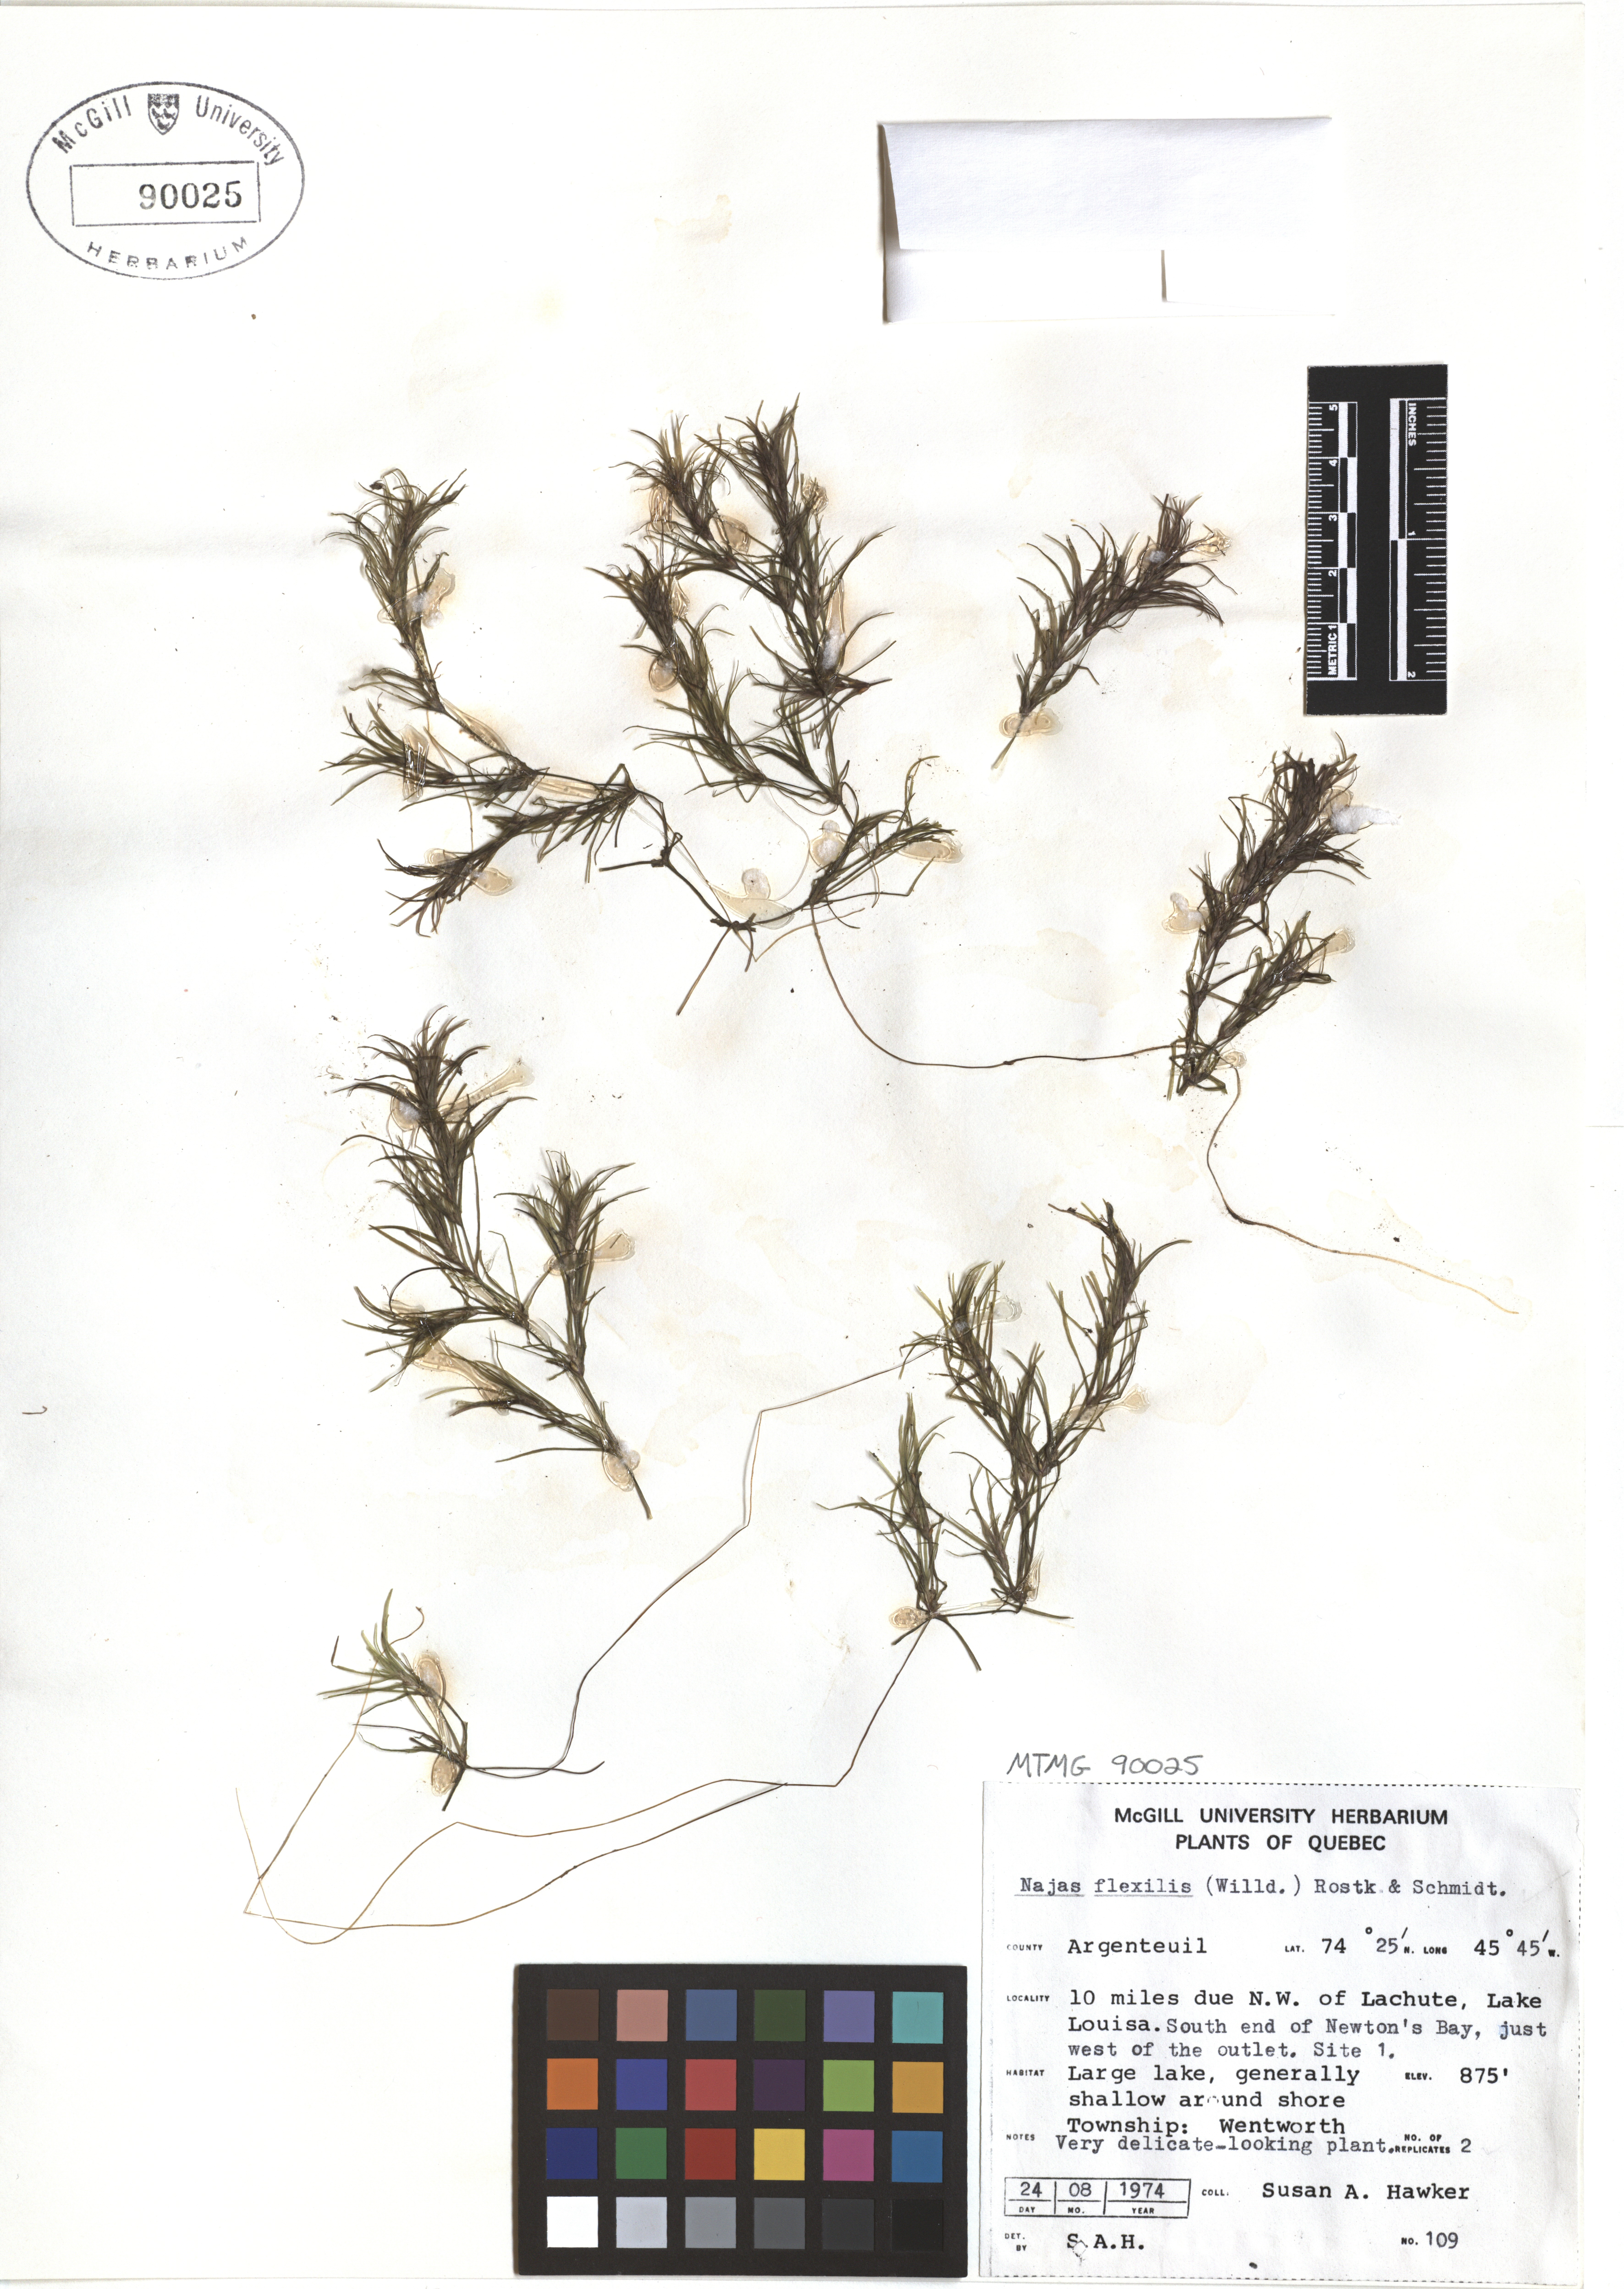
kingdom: Plantae
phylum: Tracheophyta
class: Liliopsida
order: Alismatales
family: Hydrocharitaceae
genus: Najas
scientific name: Najas guadalupensis
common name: Southern naiad
